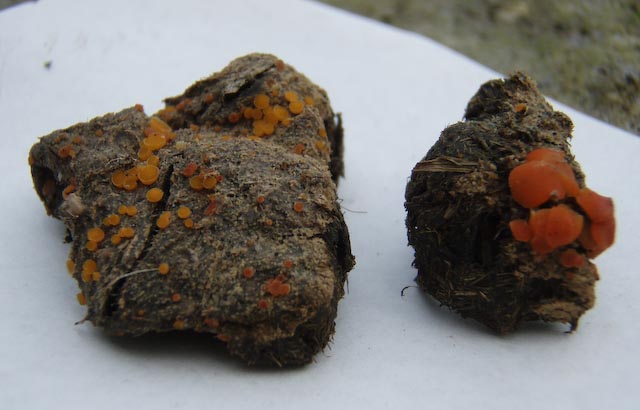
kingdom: Fungi
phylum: Ascomycota
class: Pezizomycetes
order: Pezizales
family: Pyronemataceae
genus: Cheilymenia
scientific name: Cheilymenia
